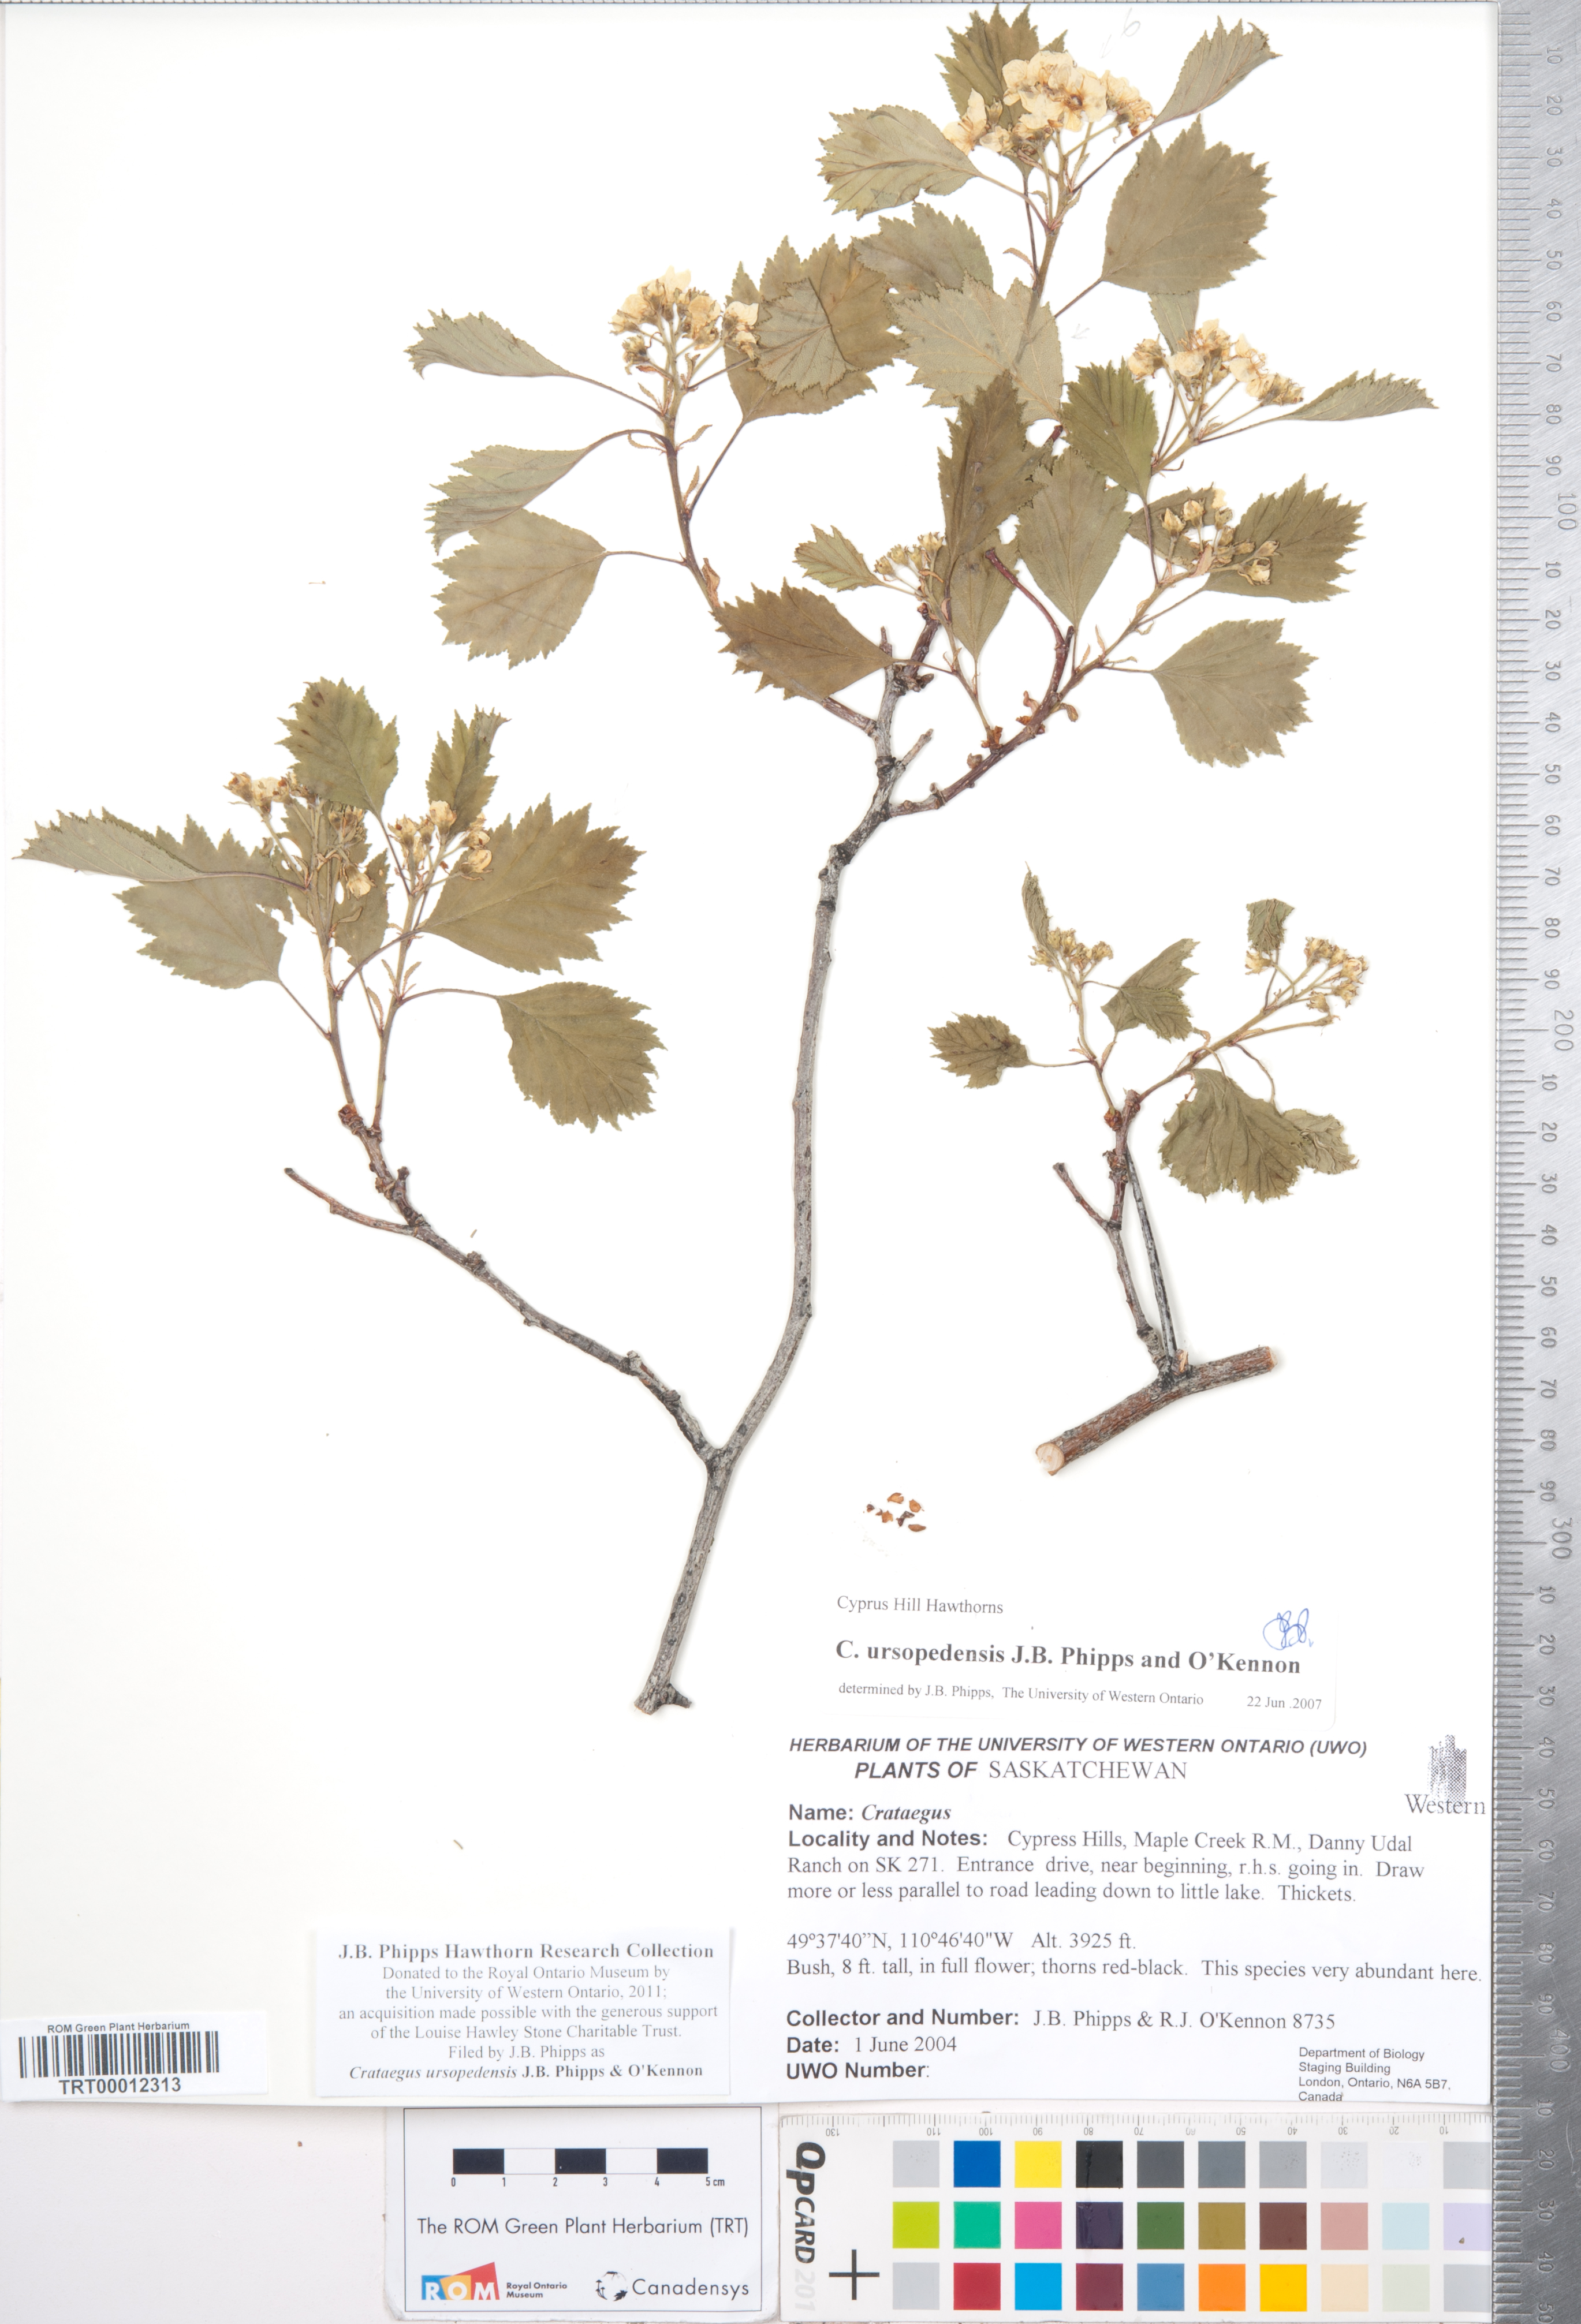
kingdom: Plantae
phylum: Tracheophyta
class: Magnoliopsida
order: Rosales
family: Rosaceae
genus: Crataegus
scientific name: Crataegus ursopedensis
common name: Bears paw hawthorn
